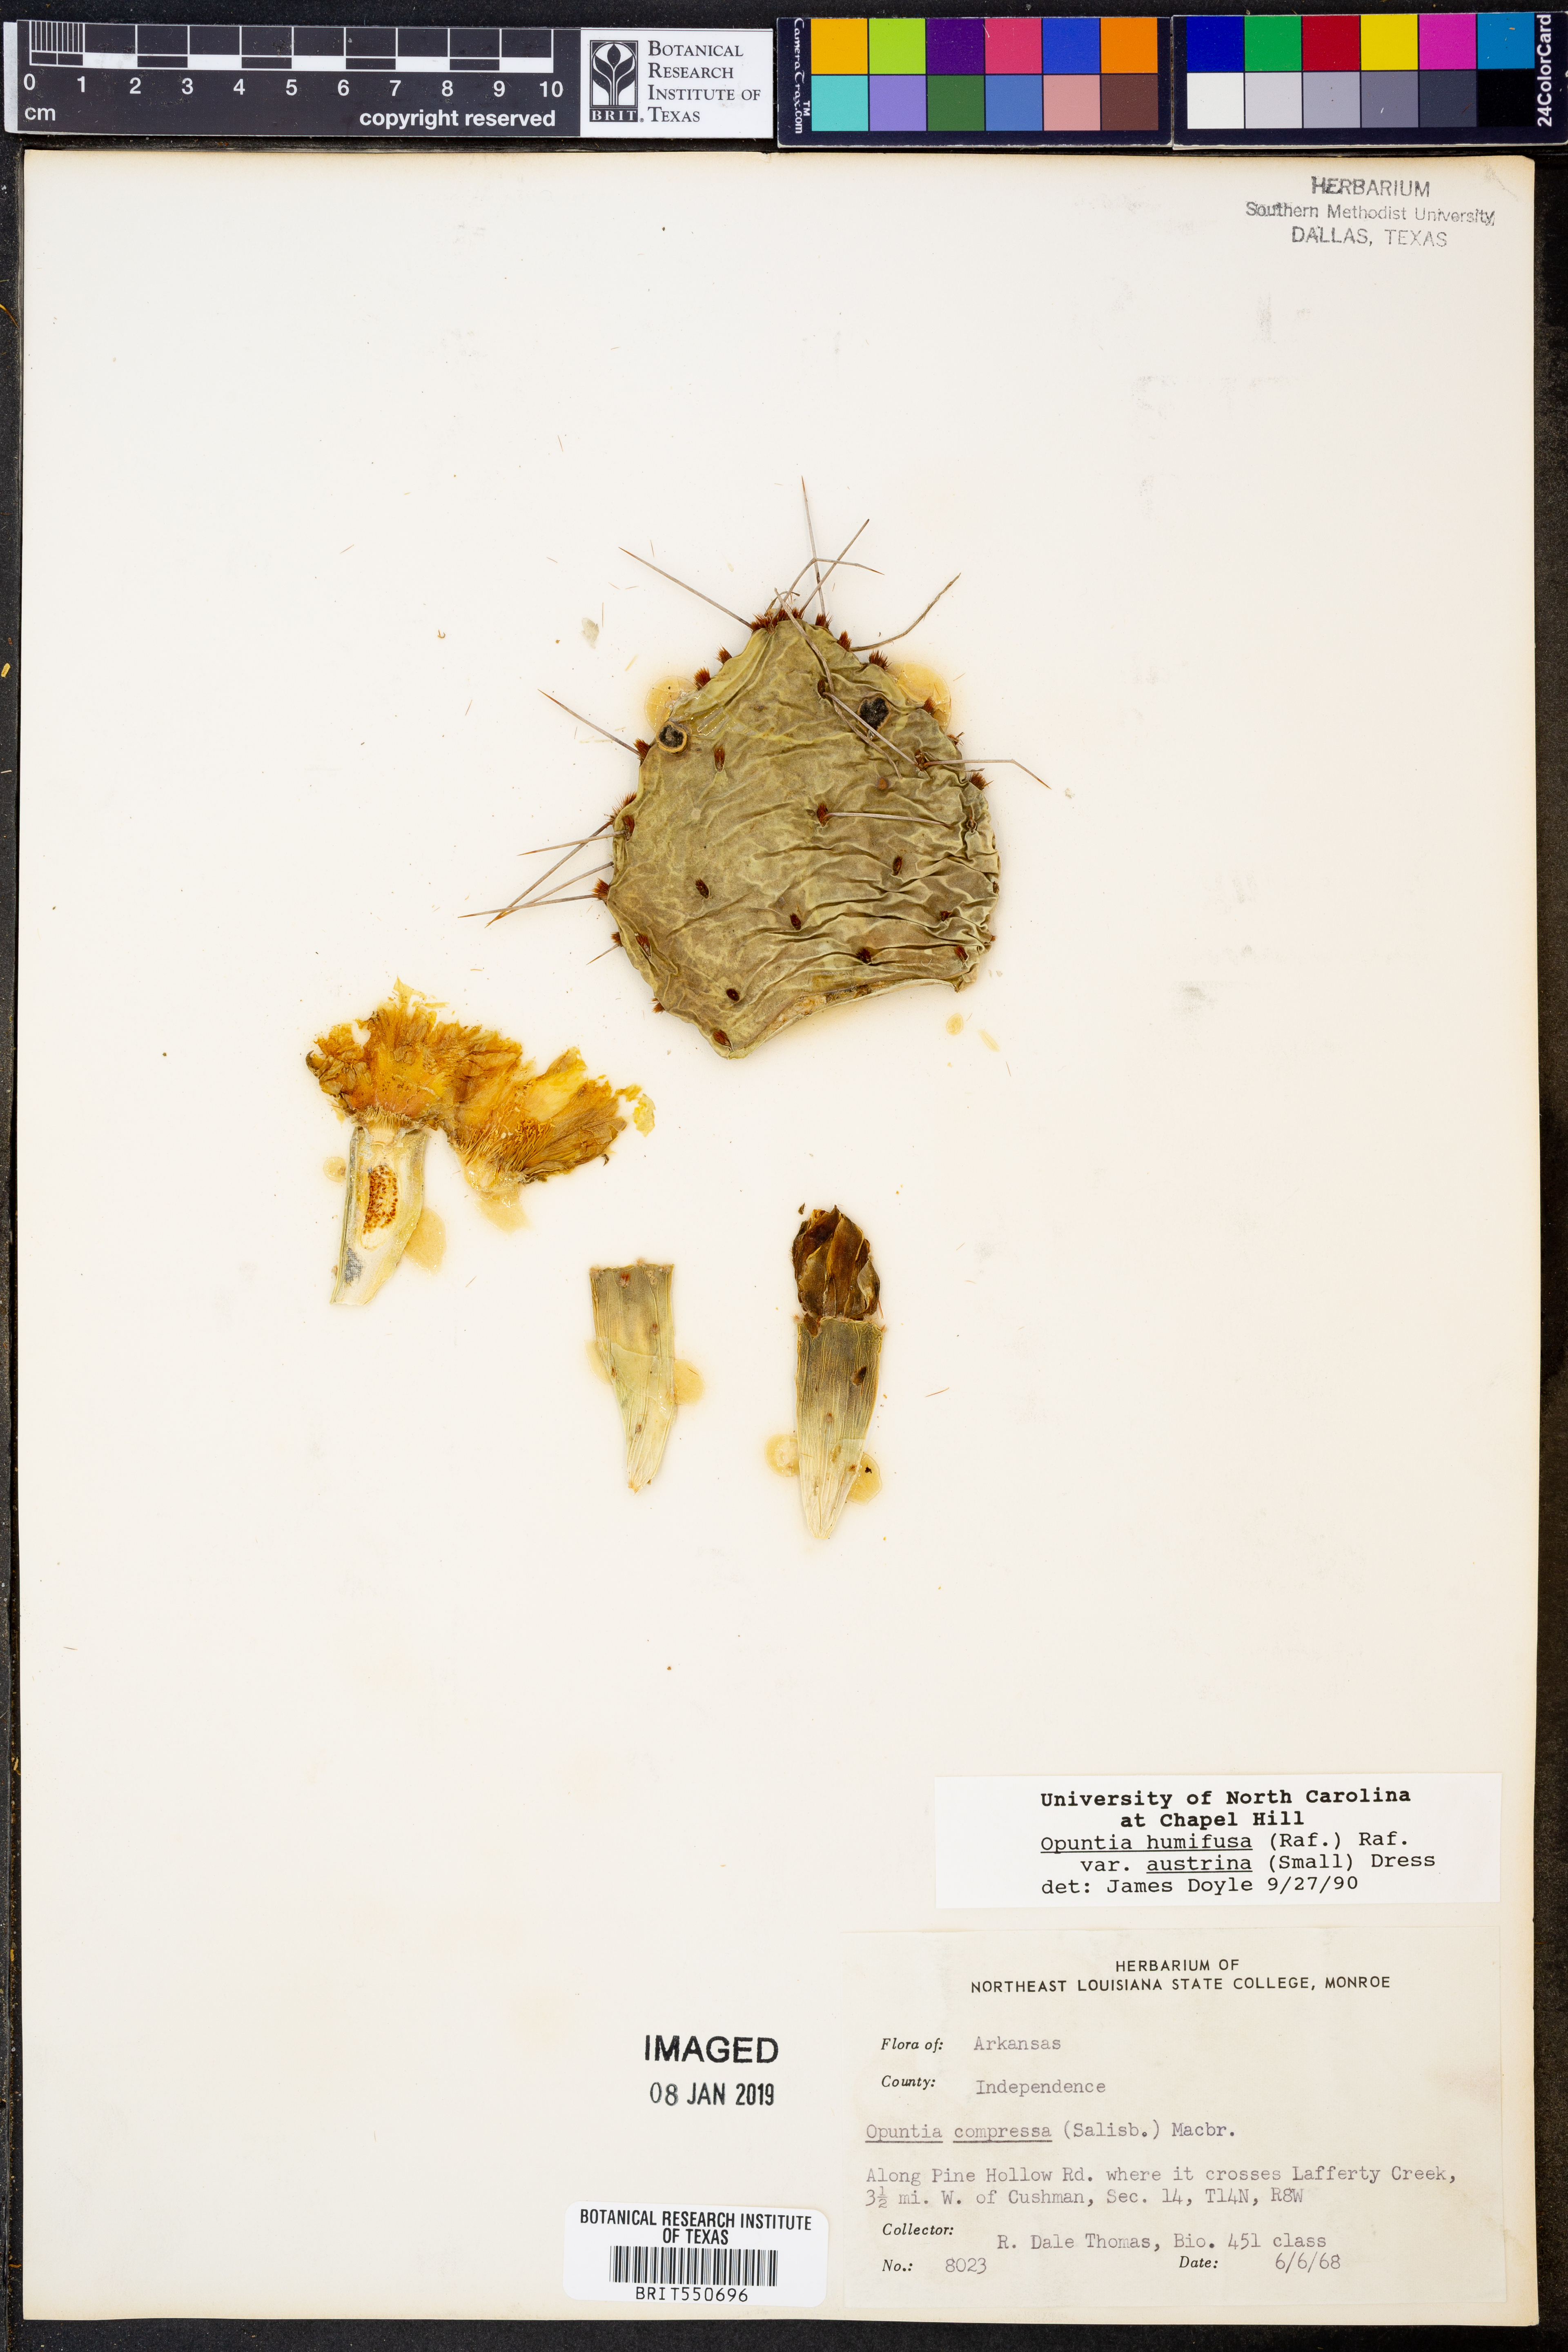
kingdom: Plantae
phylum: Tracheophyta
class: Magnoliopsida
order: Caryophyllales
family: Cactaceae
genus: Opuntia
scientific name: Opuntia austrina
